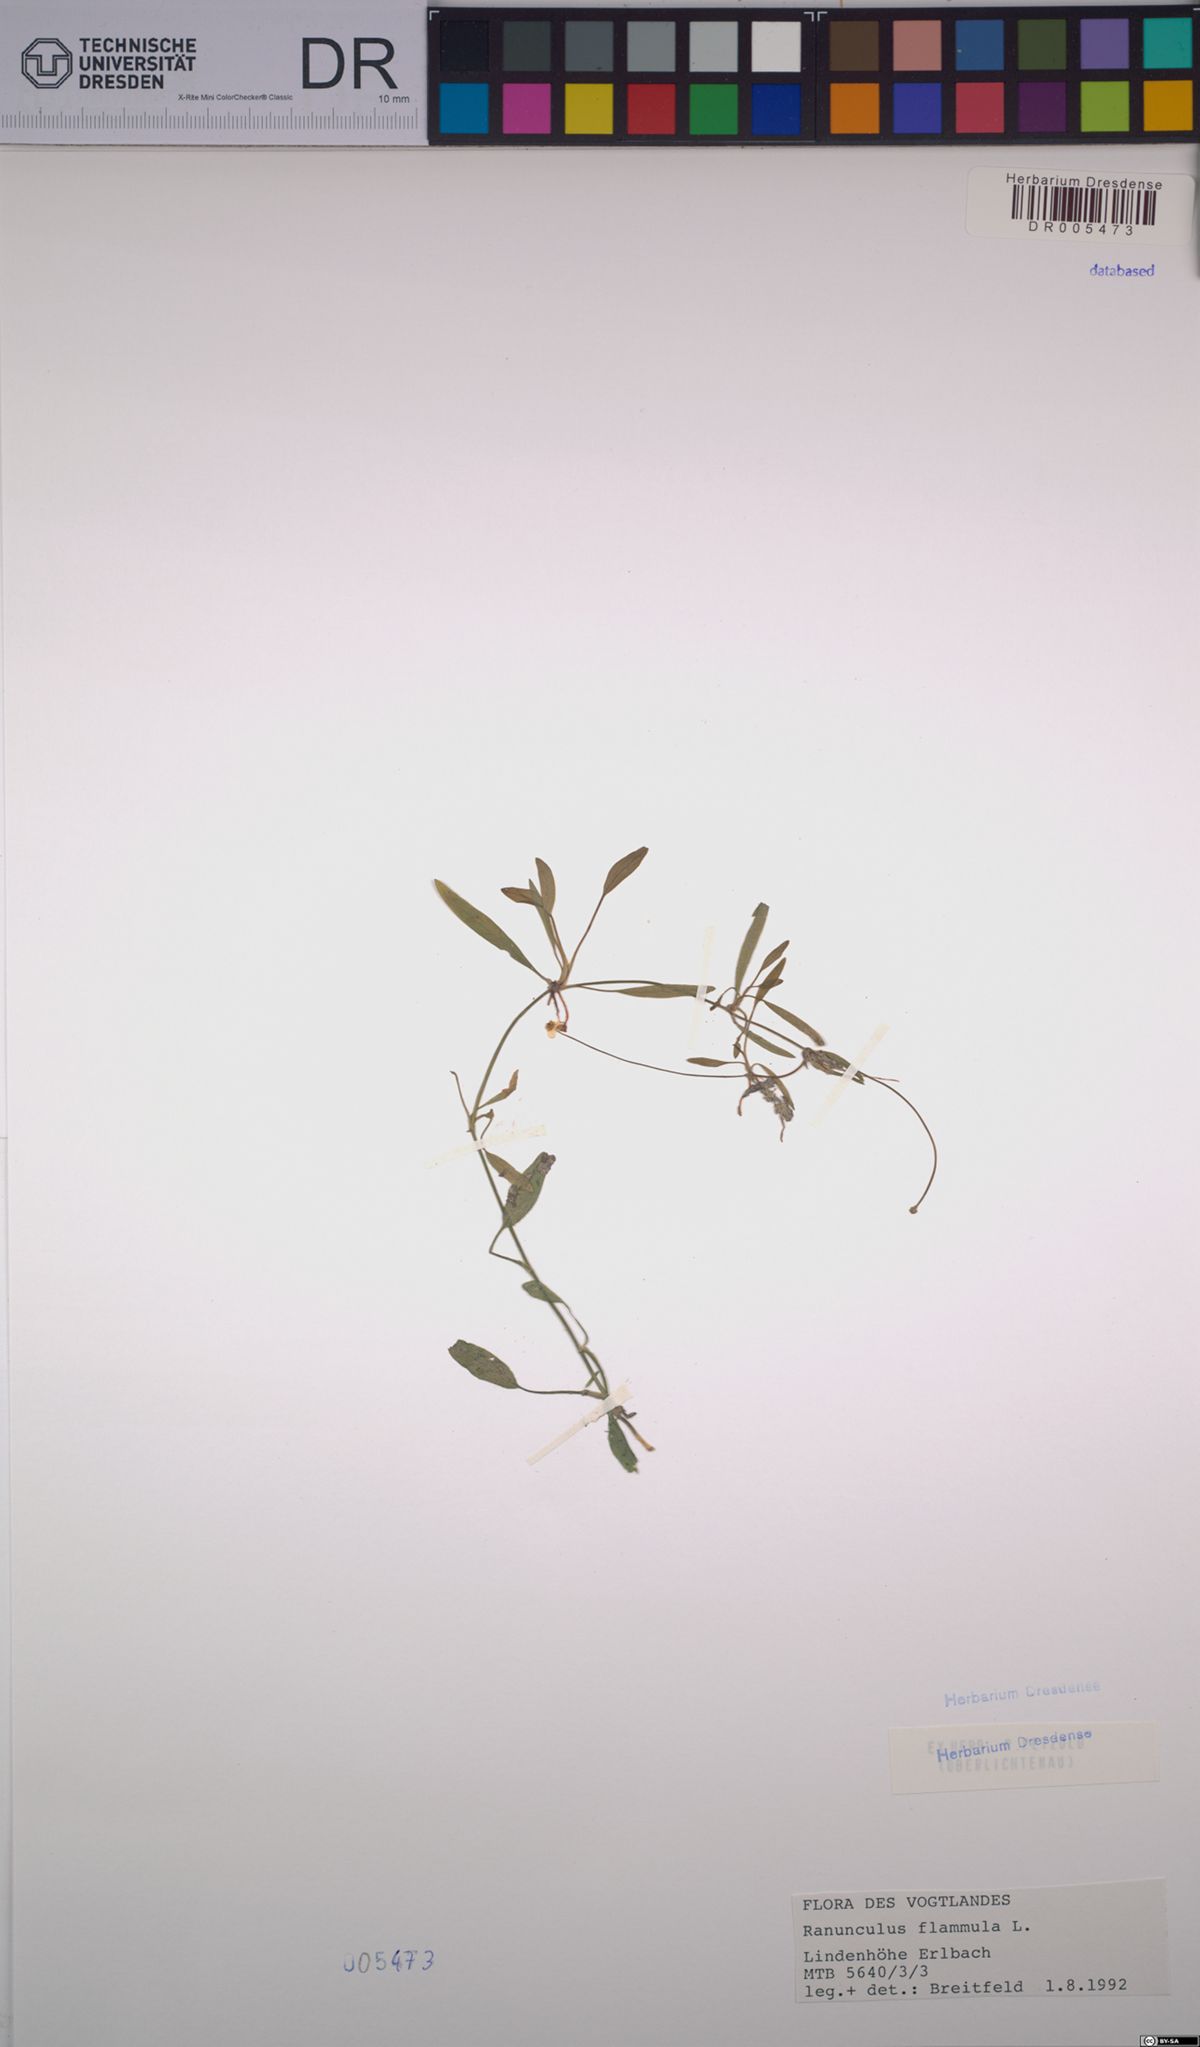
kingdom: Plantae
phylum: Tracheophyta
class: Magnoliopsida
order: Ranunculales
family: Ranunculaceae
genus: Ranunculus
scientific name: Ranunculus flammula
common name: Lesser spearwort
